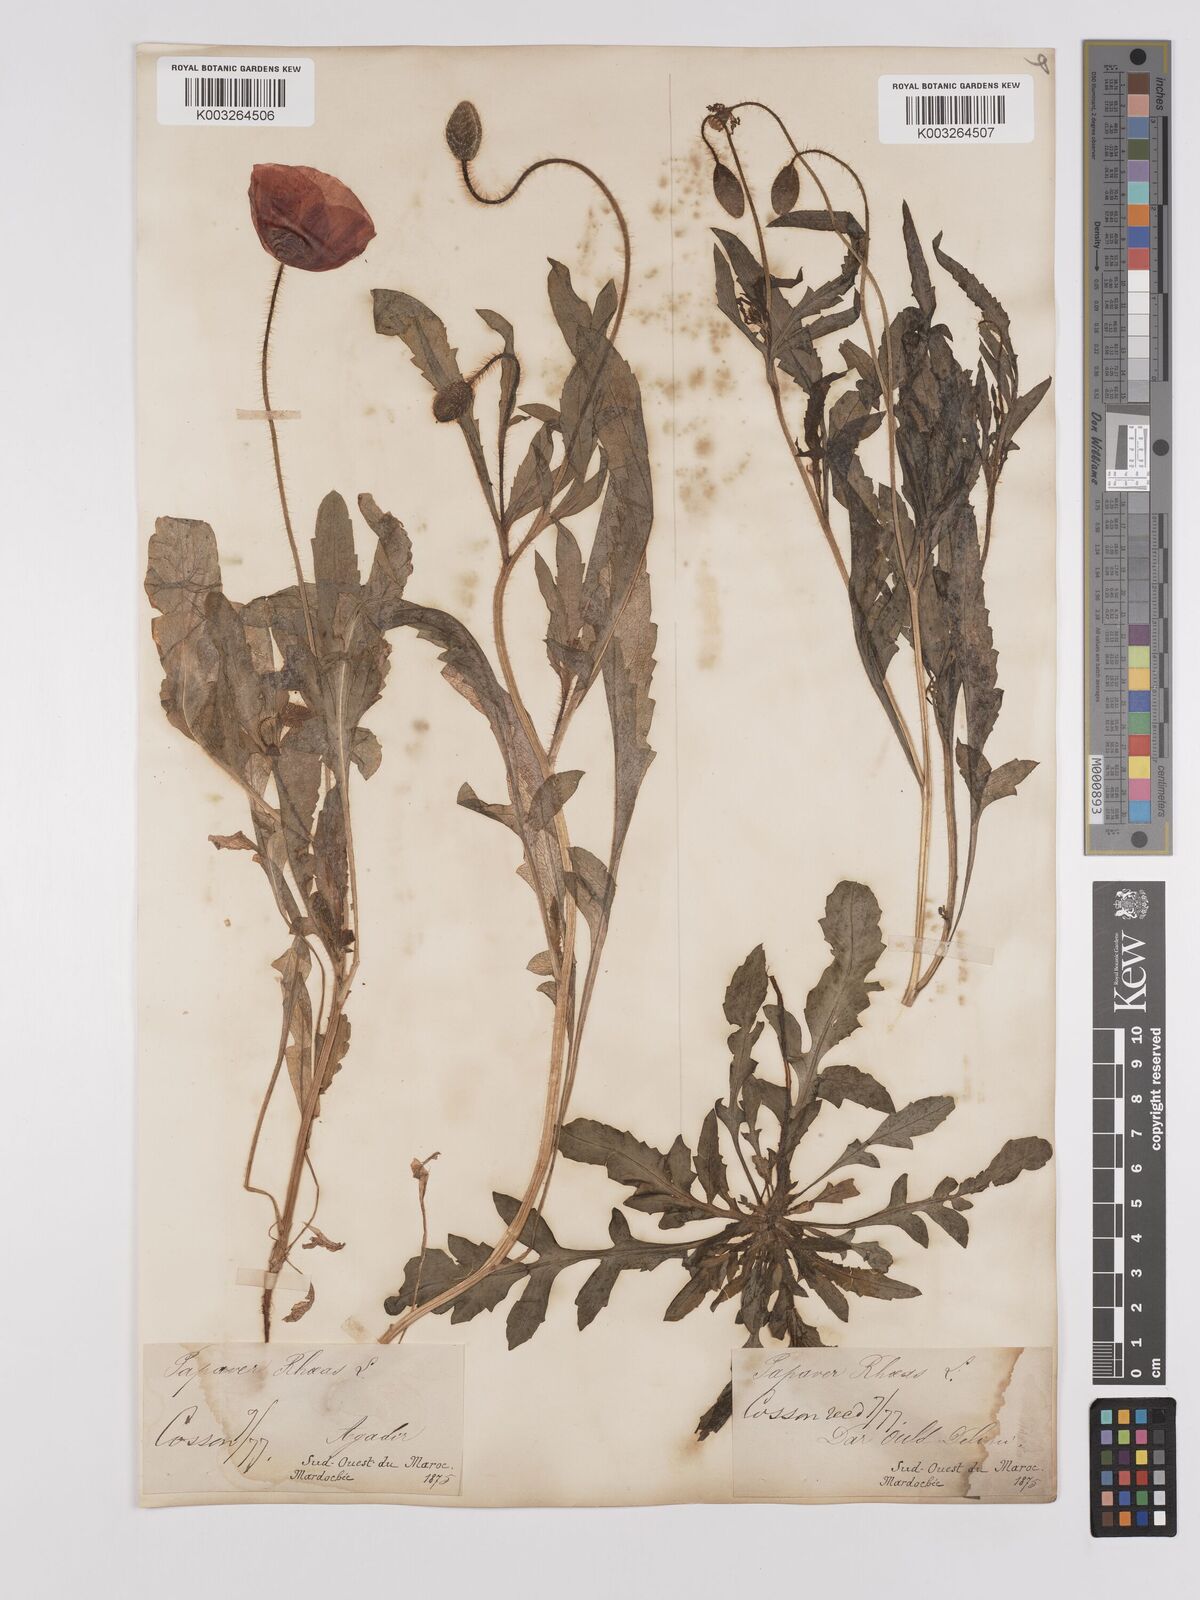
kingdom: Plantae
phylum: Tracheophyta
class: Magnoliopsida
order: Ranunculales
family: Papaveraceae
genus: Papaver
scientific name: Papaver rhoeas
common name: Corn poppy
